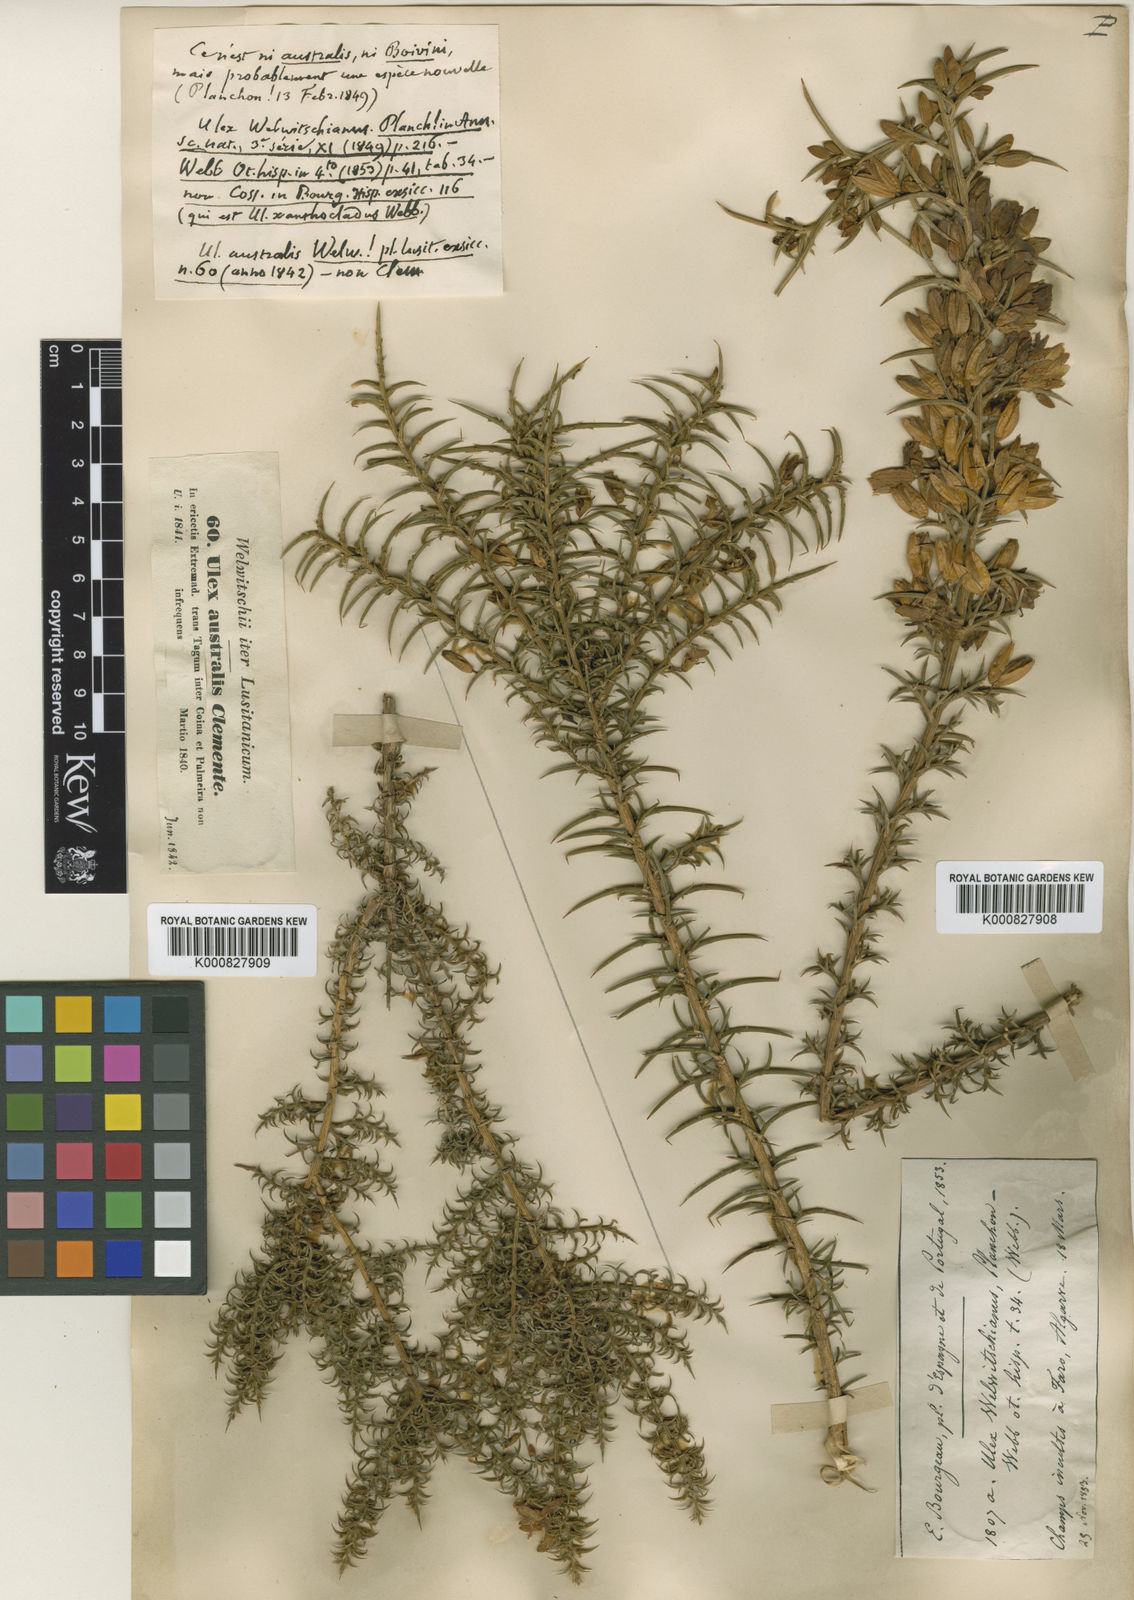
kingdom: Plantae
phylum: Tracheophyta
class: Magnoliopsida
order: Fabales
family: Fabaceae
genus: Ulex
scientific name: Ulex australis
